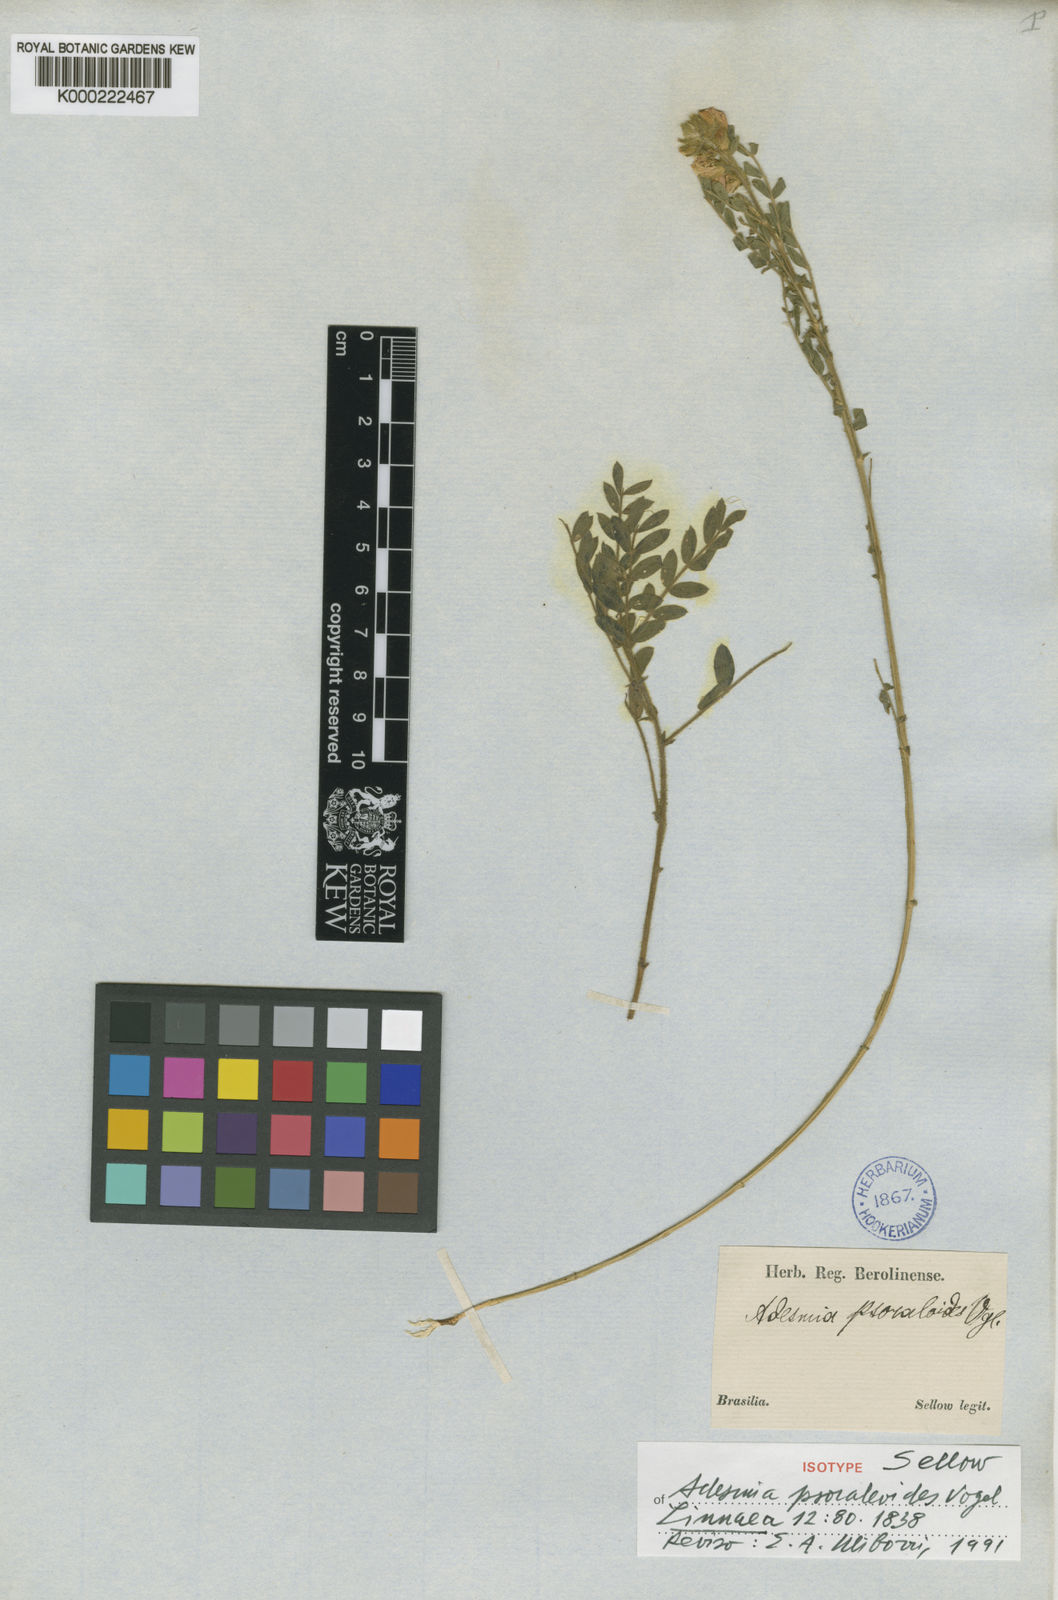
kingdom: Plantae
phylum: Tracheophyta
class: Magnoliopsida
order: Fabales
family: Fabaceae
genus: Adesmia
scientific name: Adesmia psoraleoides
